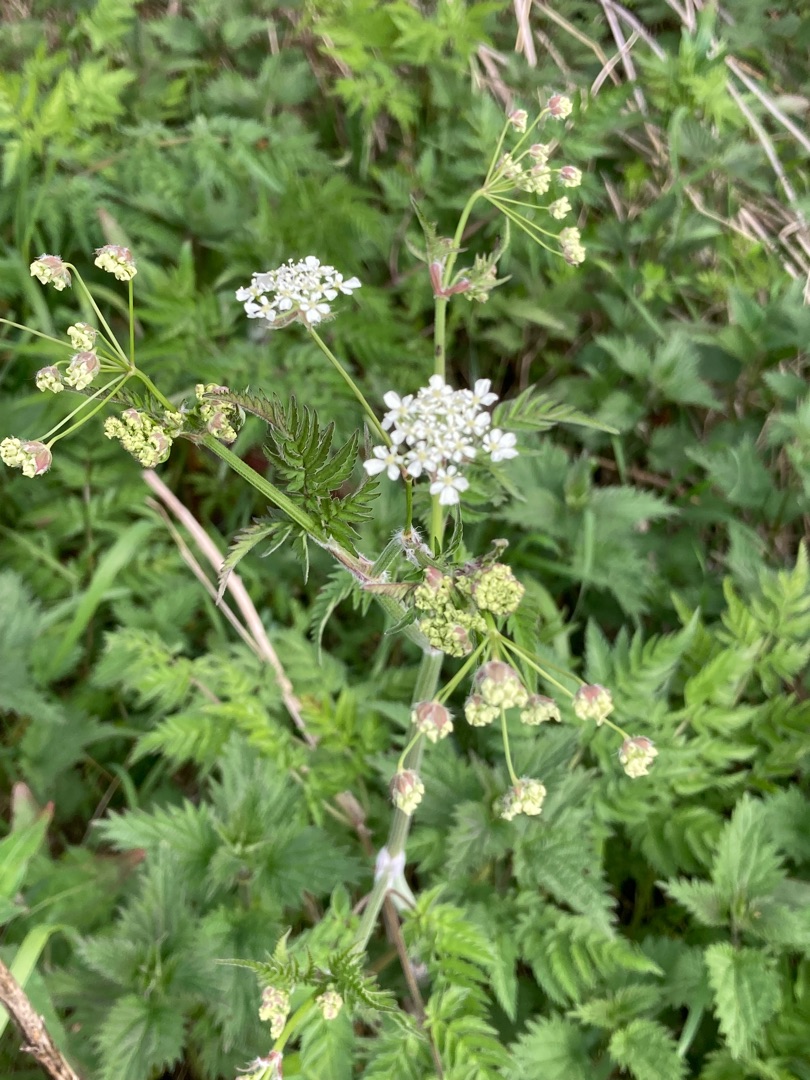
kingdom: Plantae
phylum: Tracheophyta
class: Magnoliopsida
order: Apiales
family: Apiaceae
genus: Anthriscus
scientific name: Anthriscus sylvestris
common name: Vild kørvel
